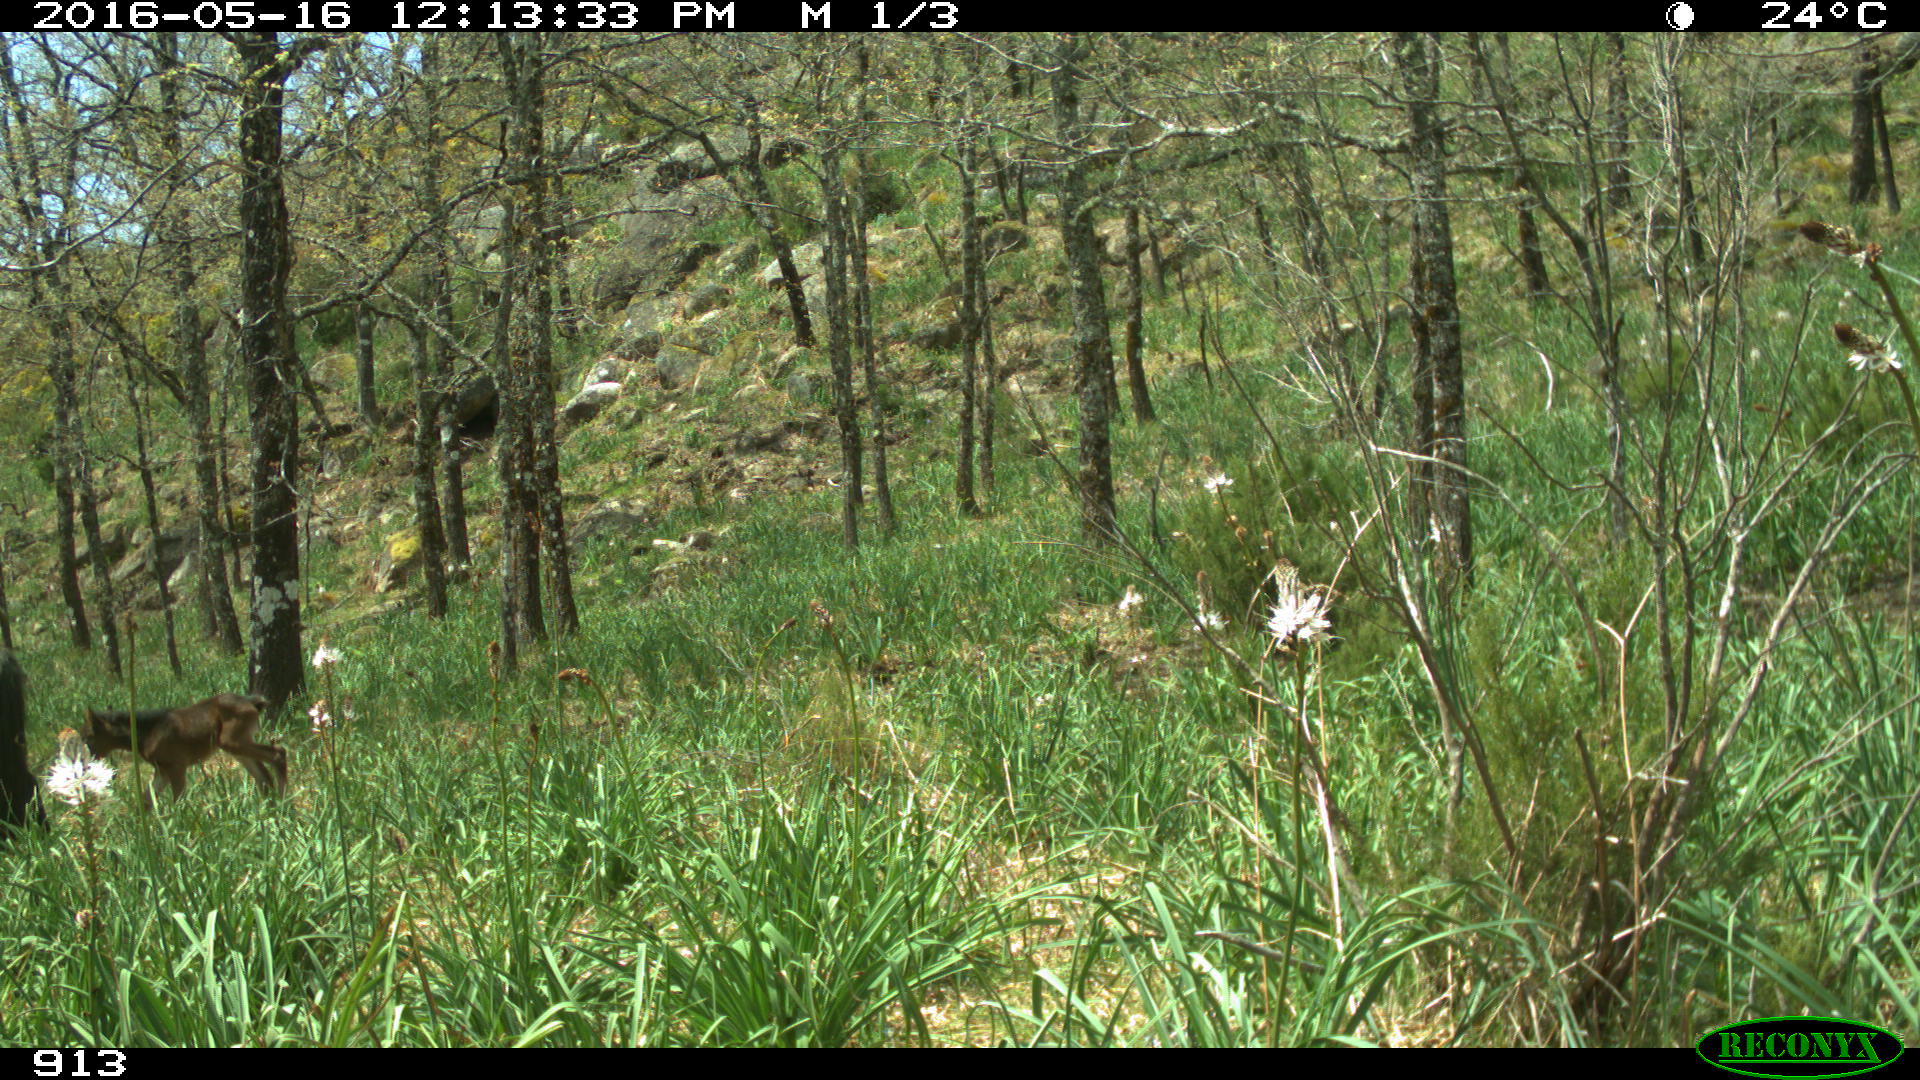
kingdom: Animalia
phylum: Chordata
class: Mammalia
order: Perissodactyla
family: Equidae
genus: Equus
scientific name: Equus caballus
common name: Horse
